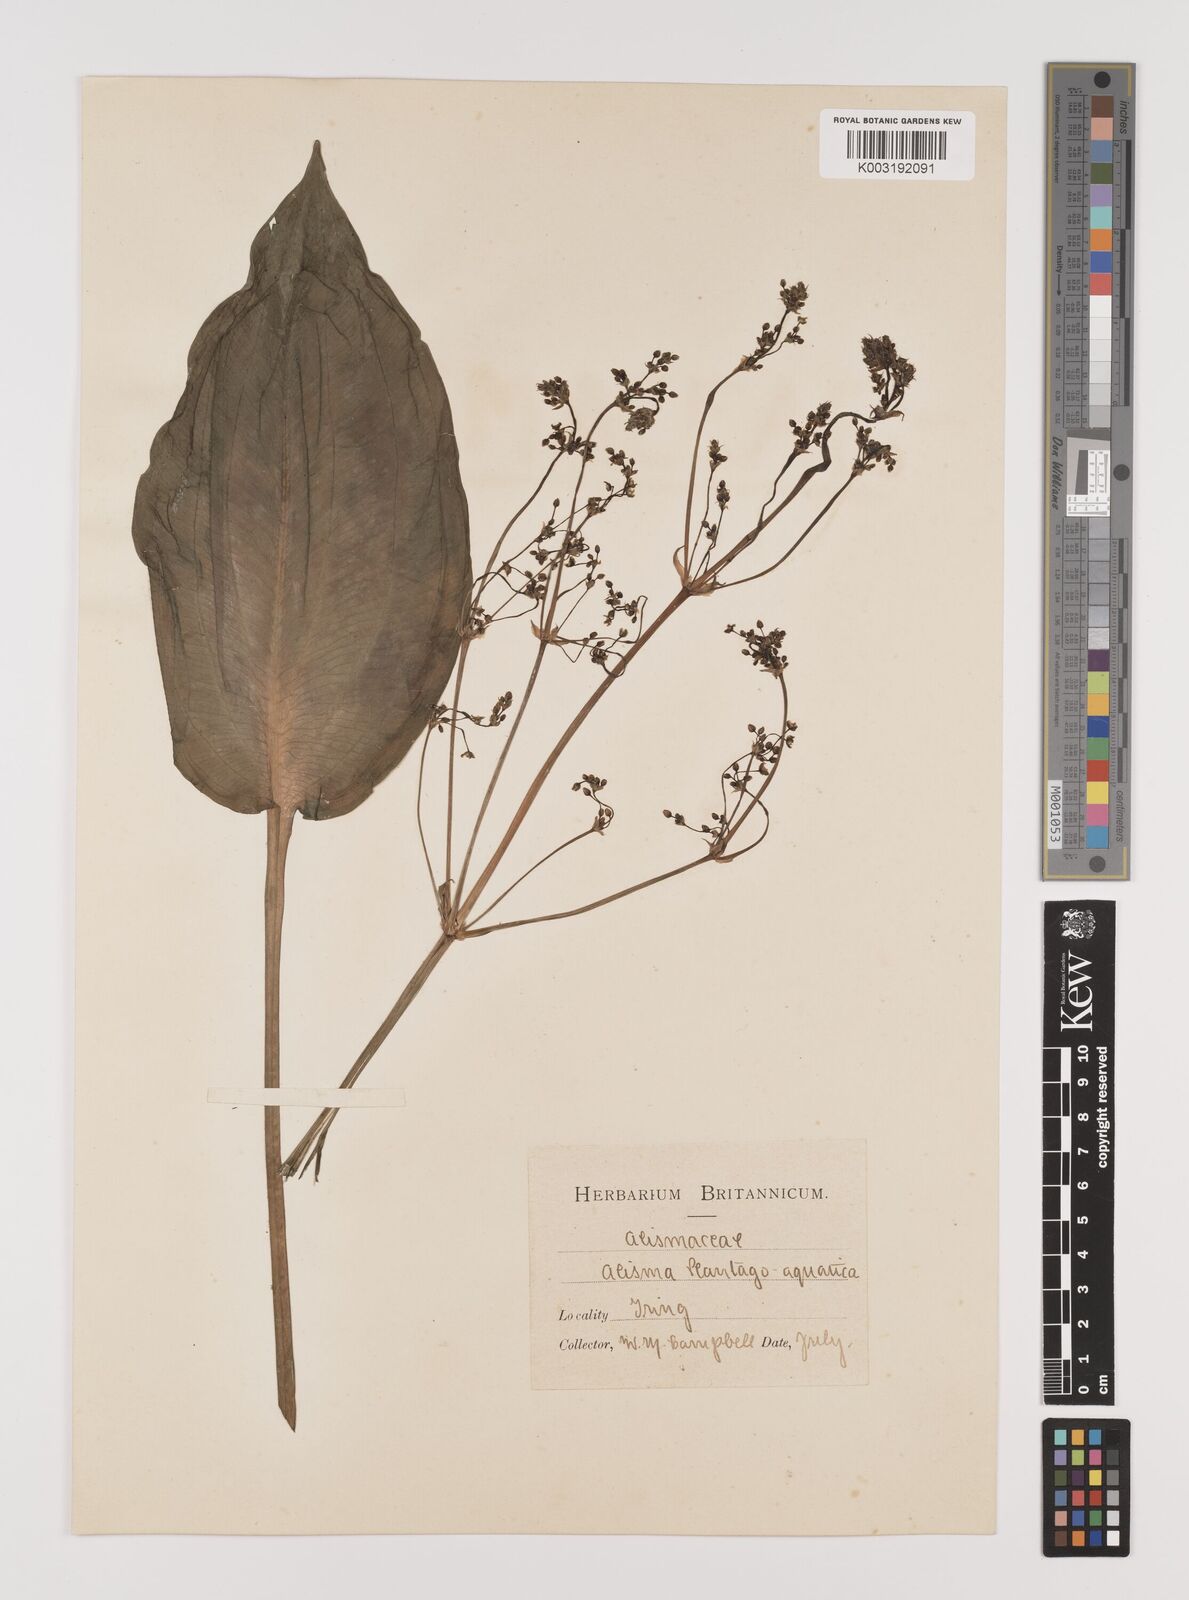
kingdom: Plantae
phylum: Tracheophyta
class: Liliopsida
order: Alismatales
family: Alismataceae
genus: Alisma
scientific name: Alisma plantago-aquatica
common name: Water-plantain
